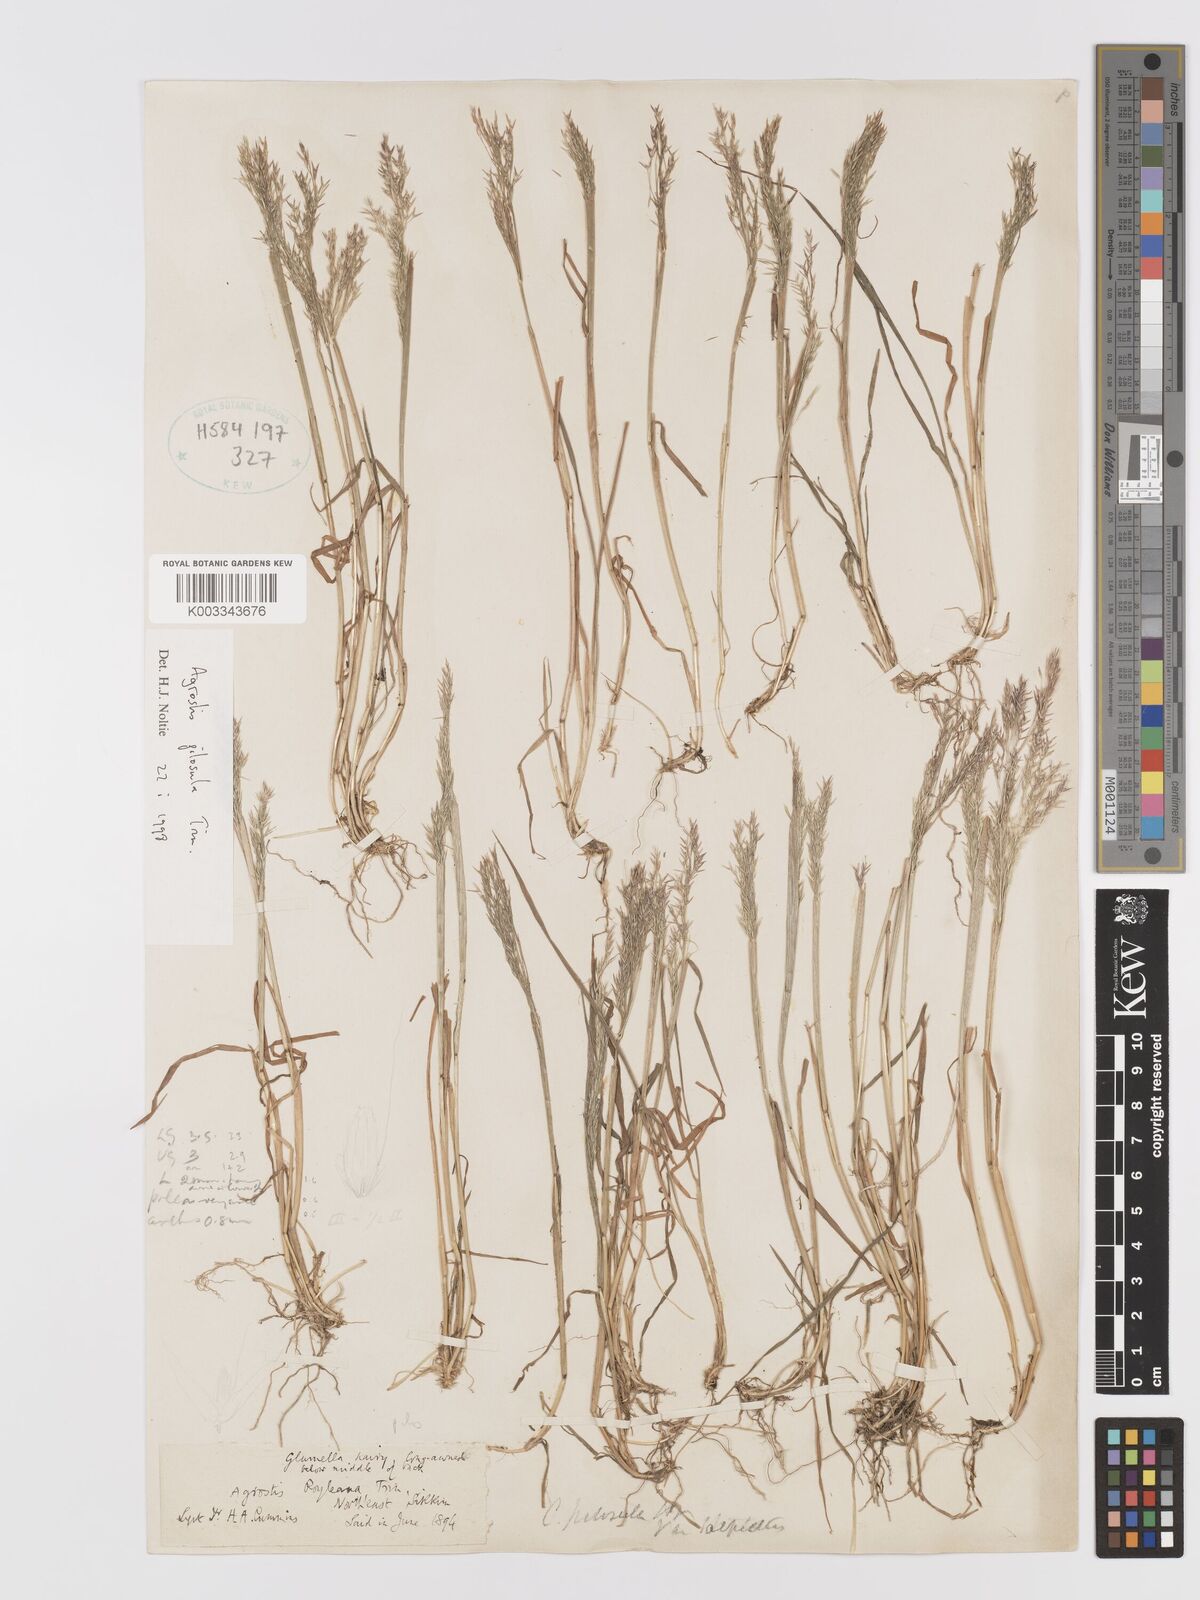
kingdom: Plantae
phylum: Tracheophyta
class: Liliopsida
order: Poales
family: Poaceae
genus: Agrostis
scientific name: Agrostis pilosula
